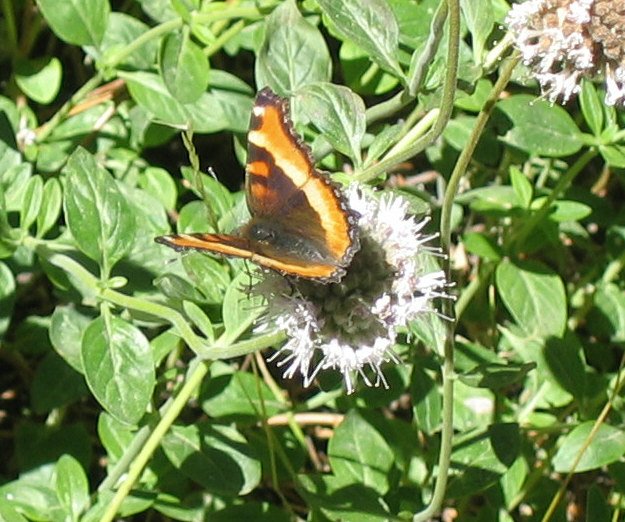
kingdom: Animalia
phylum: Arthropoda
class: Insecta
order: Lepidoptera
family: Nymphalidae
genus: Aglais
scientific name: Aglais milberti
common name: Milbert's Tortoiseshell
